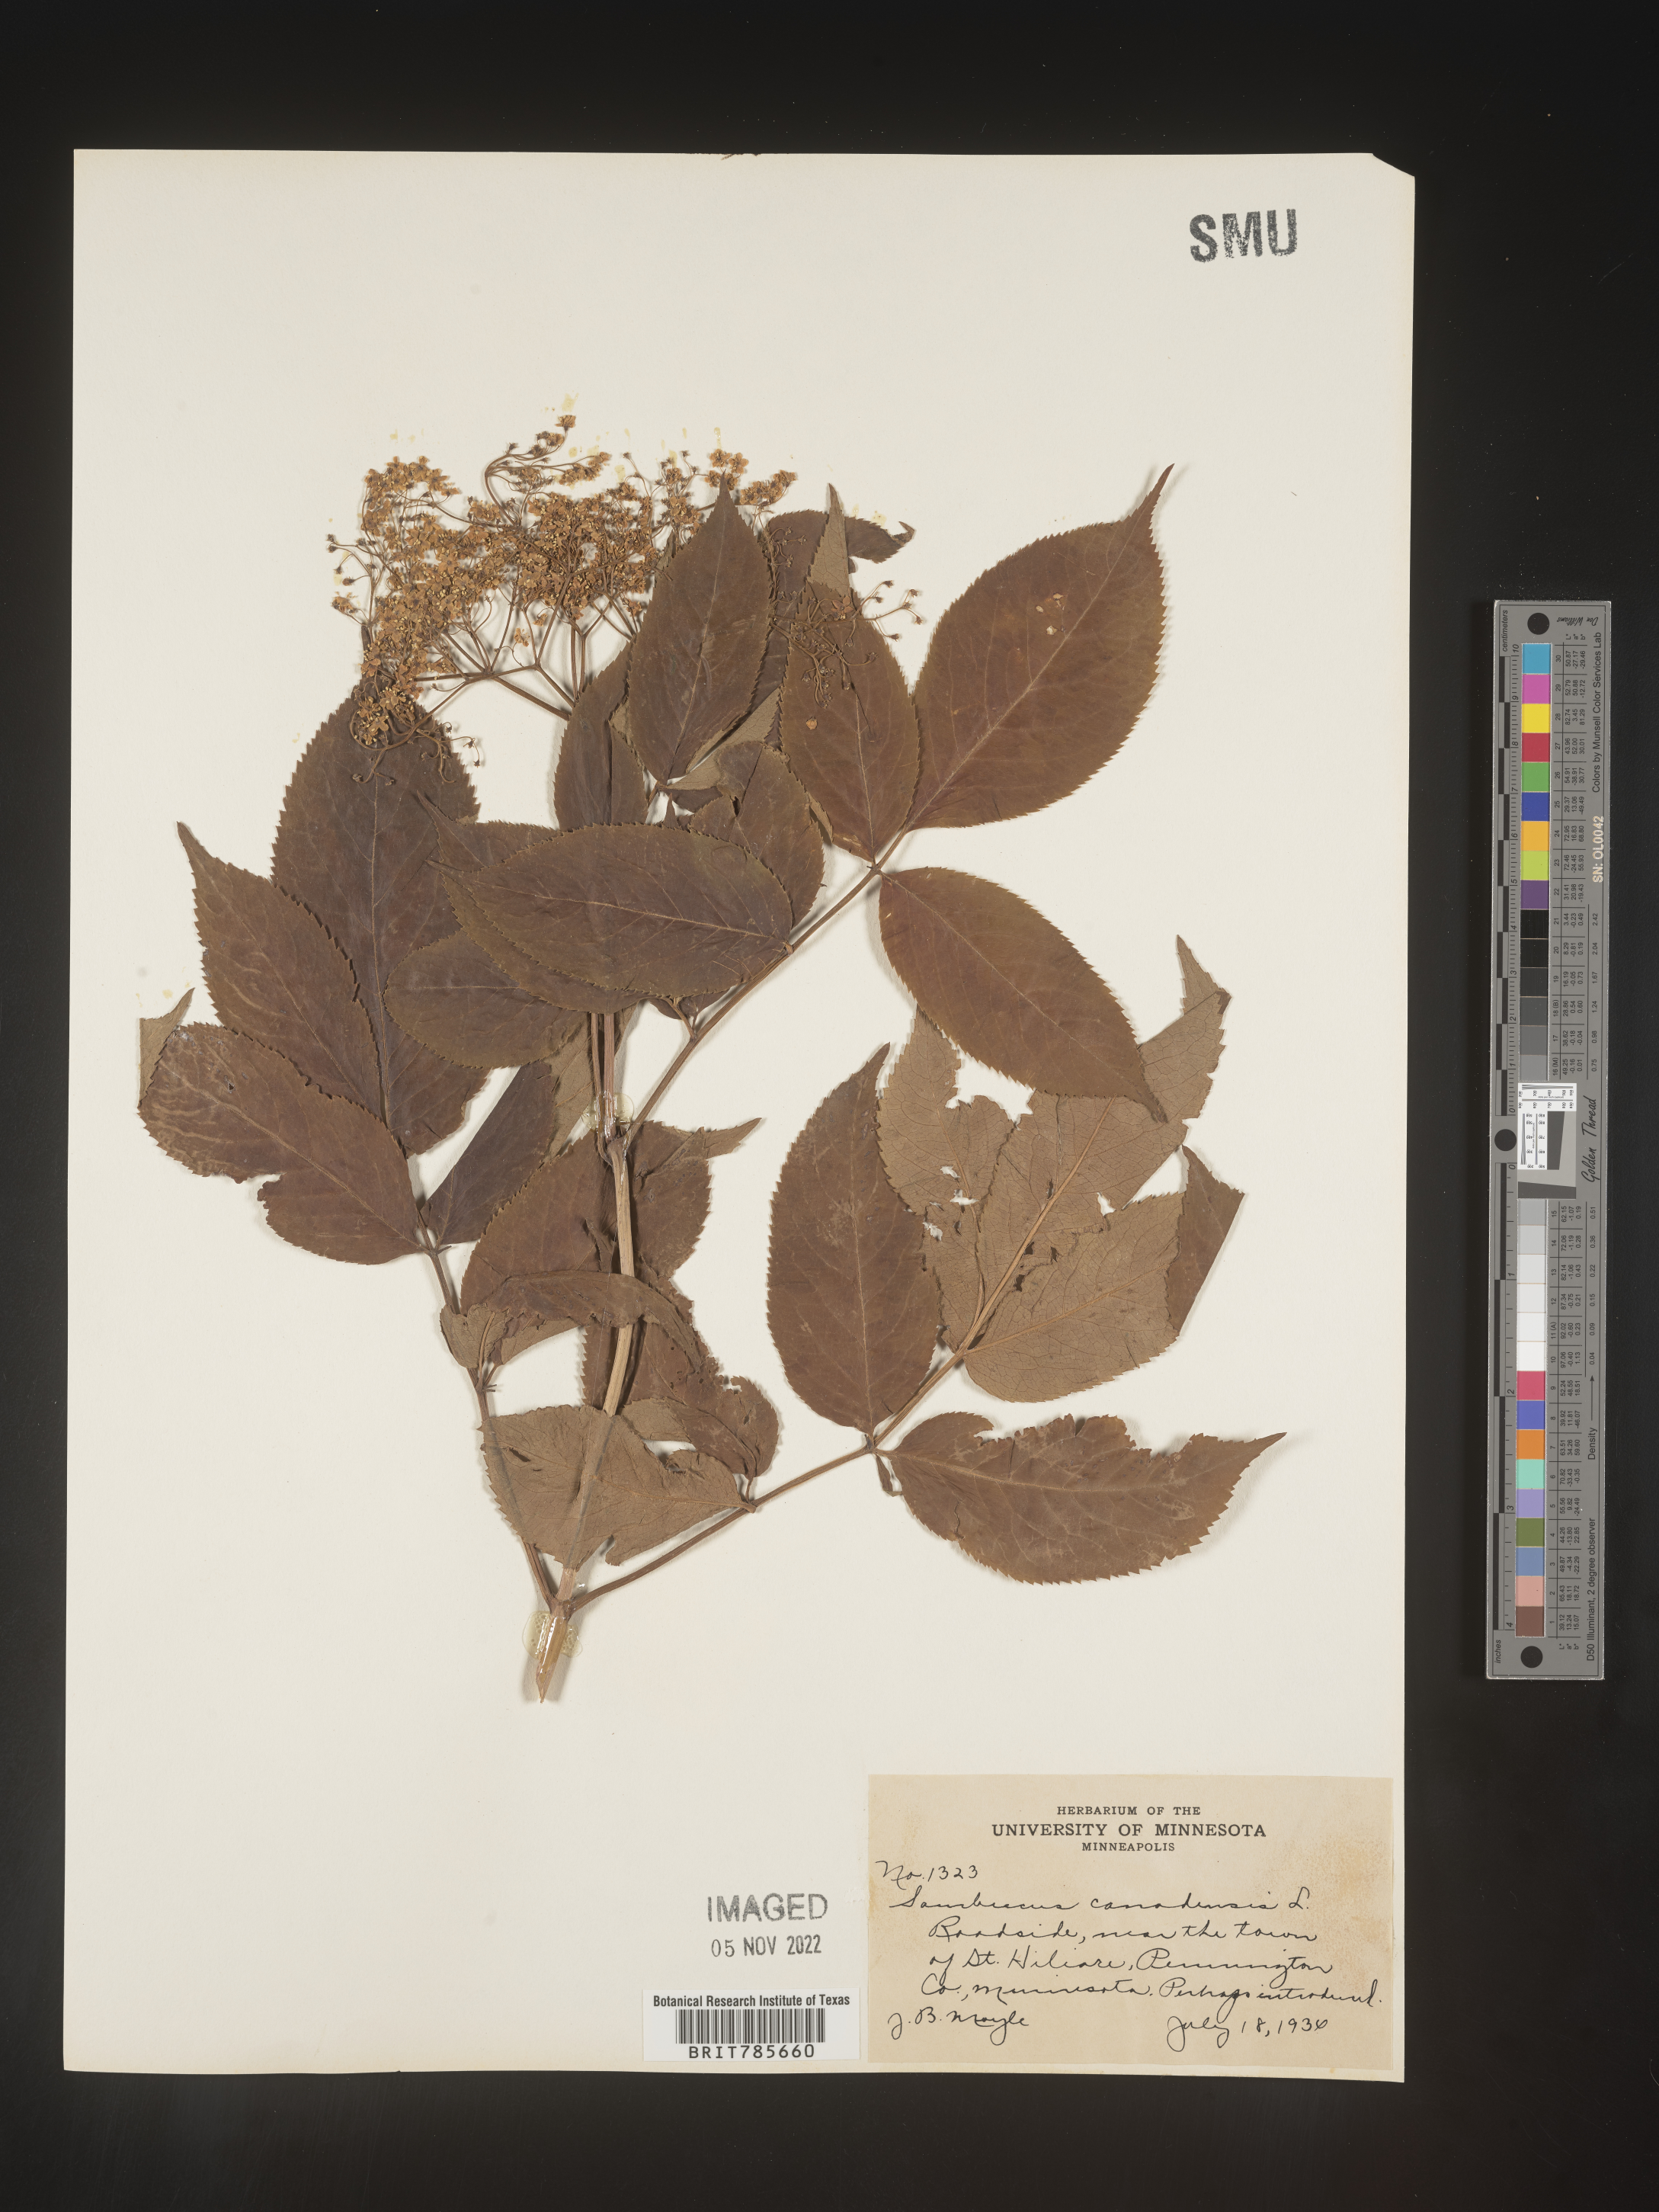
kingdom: Plantae
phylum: Tracheophyta
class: Magnoliopsida
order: Dipsacales
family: Viburnaceae
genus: Sambucus
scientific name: Sambucus canadensis
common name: American elder
